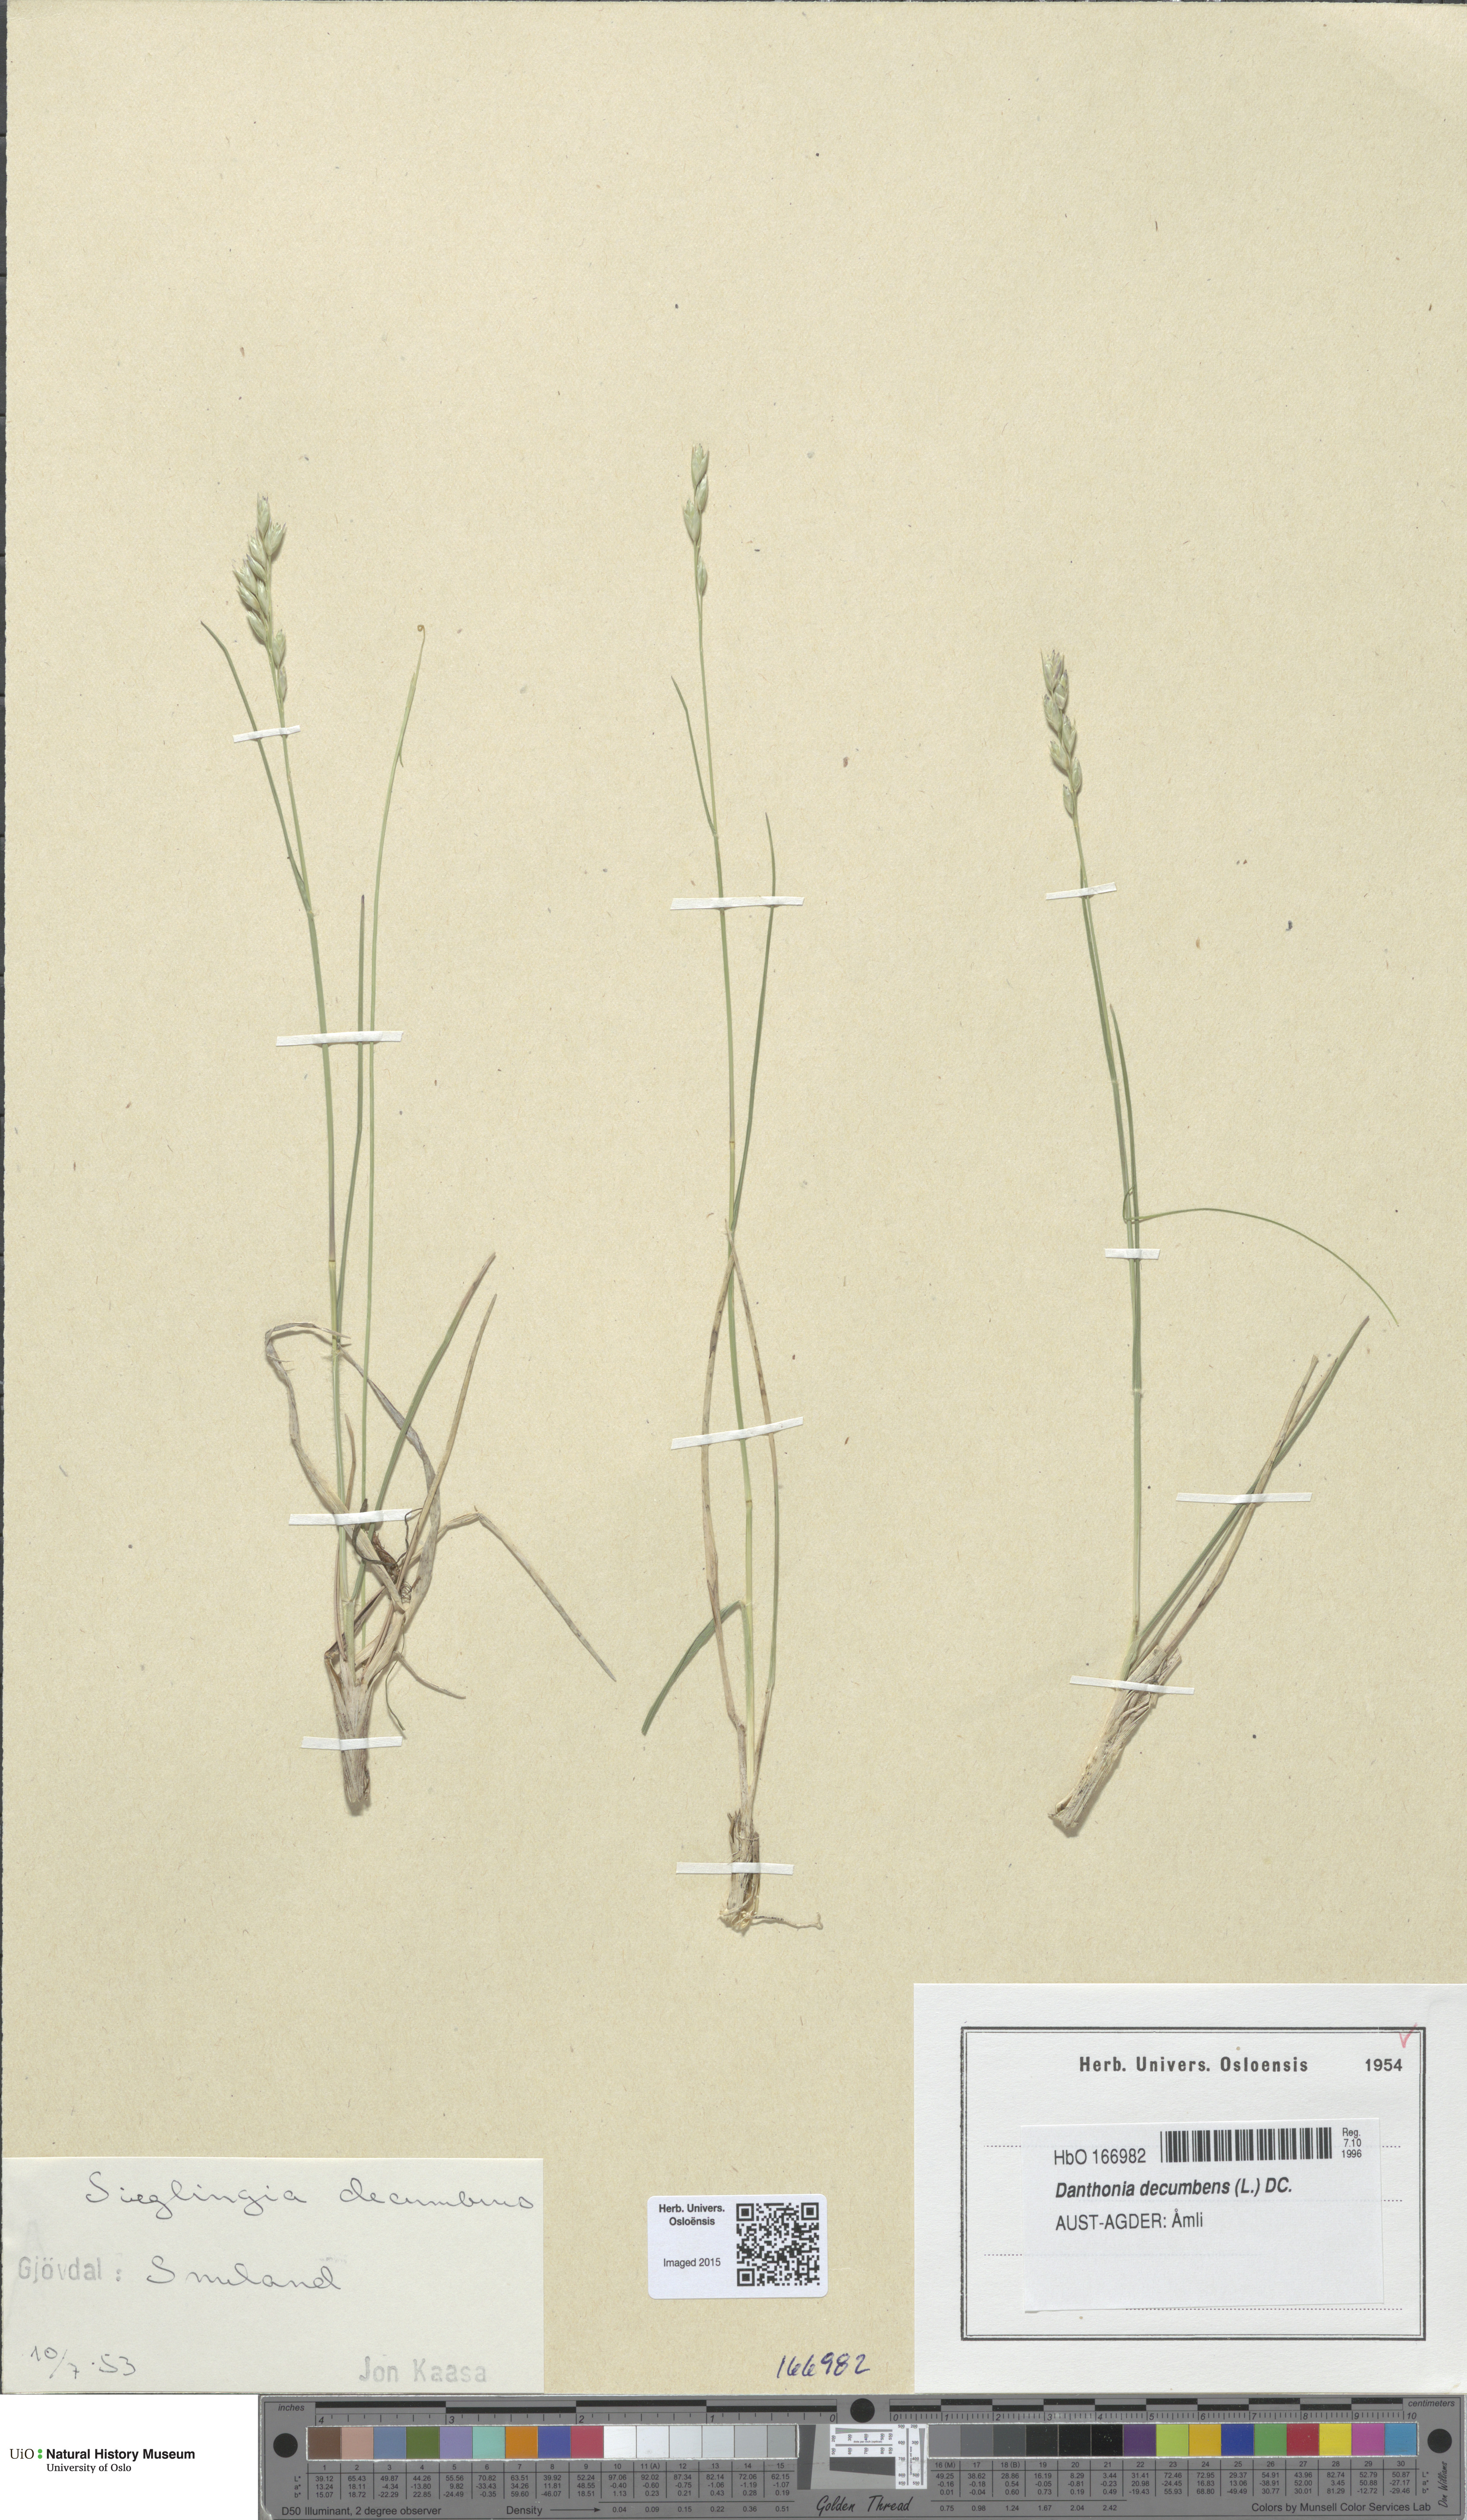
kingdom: Plantae
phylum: Tracheophyta
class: Liliopsida
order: Poales
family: Poaceae
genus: Danthonia
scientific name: Danthonia decumbens
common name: Common heathgrass
